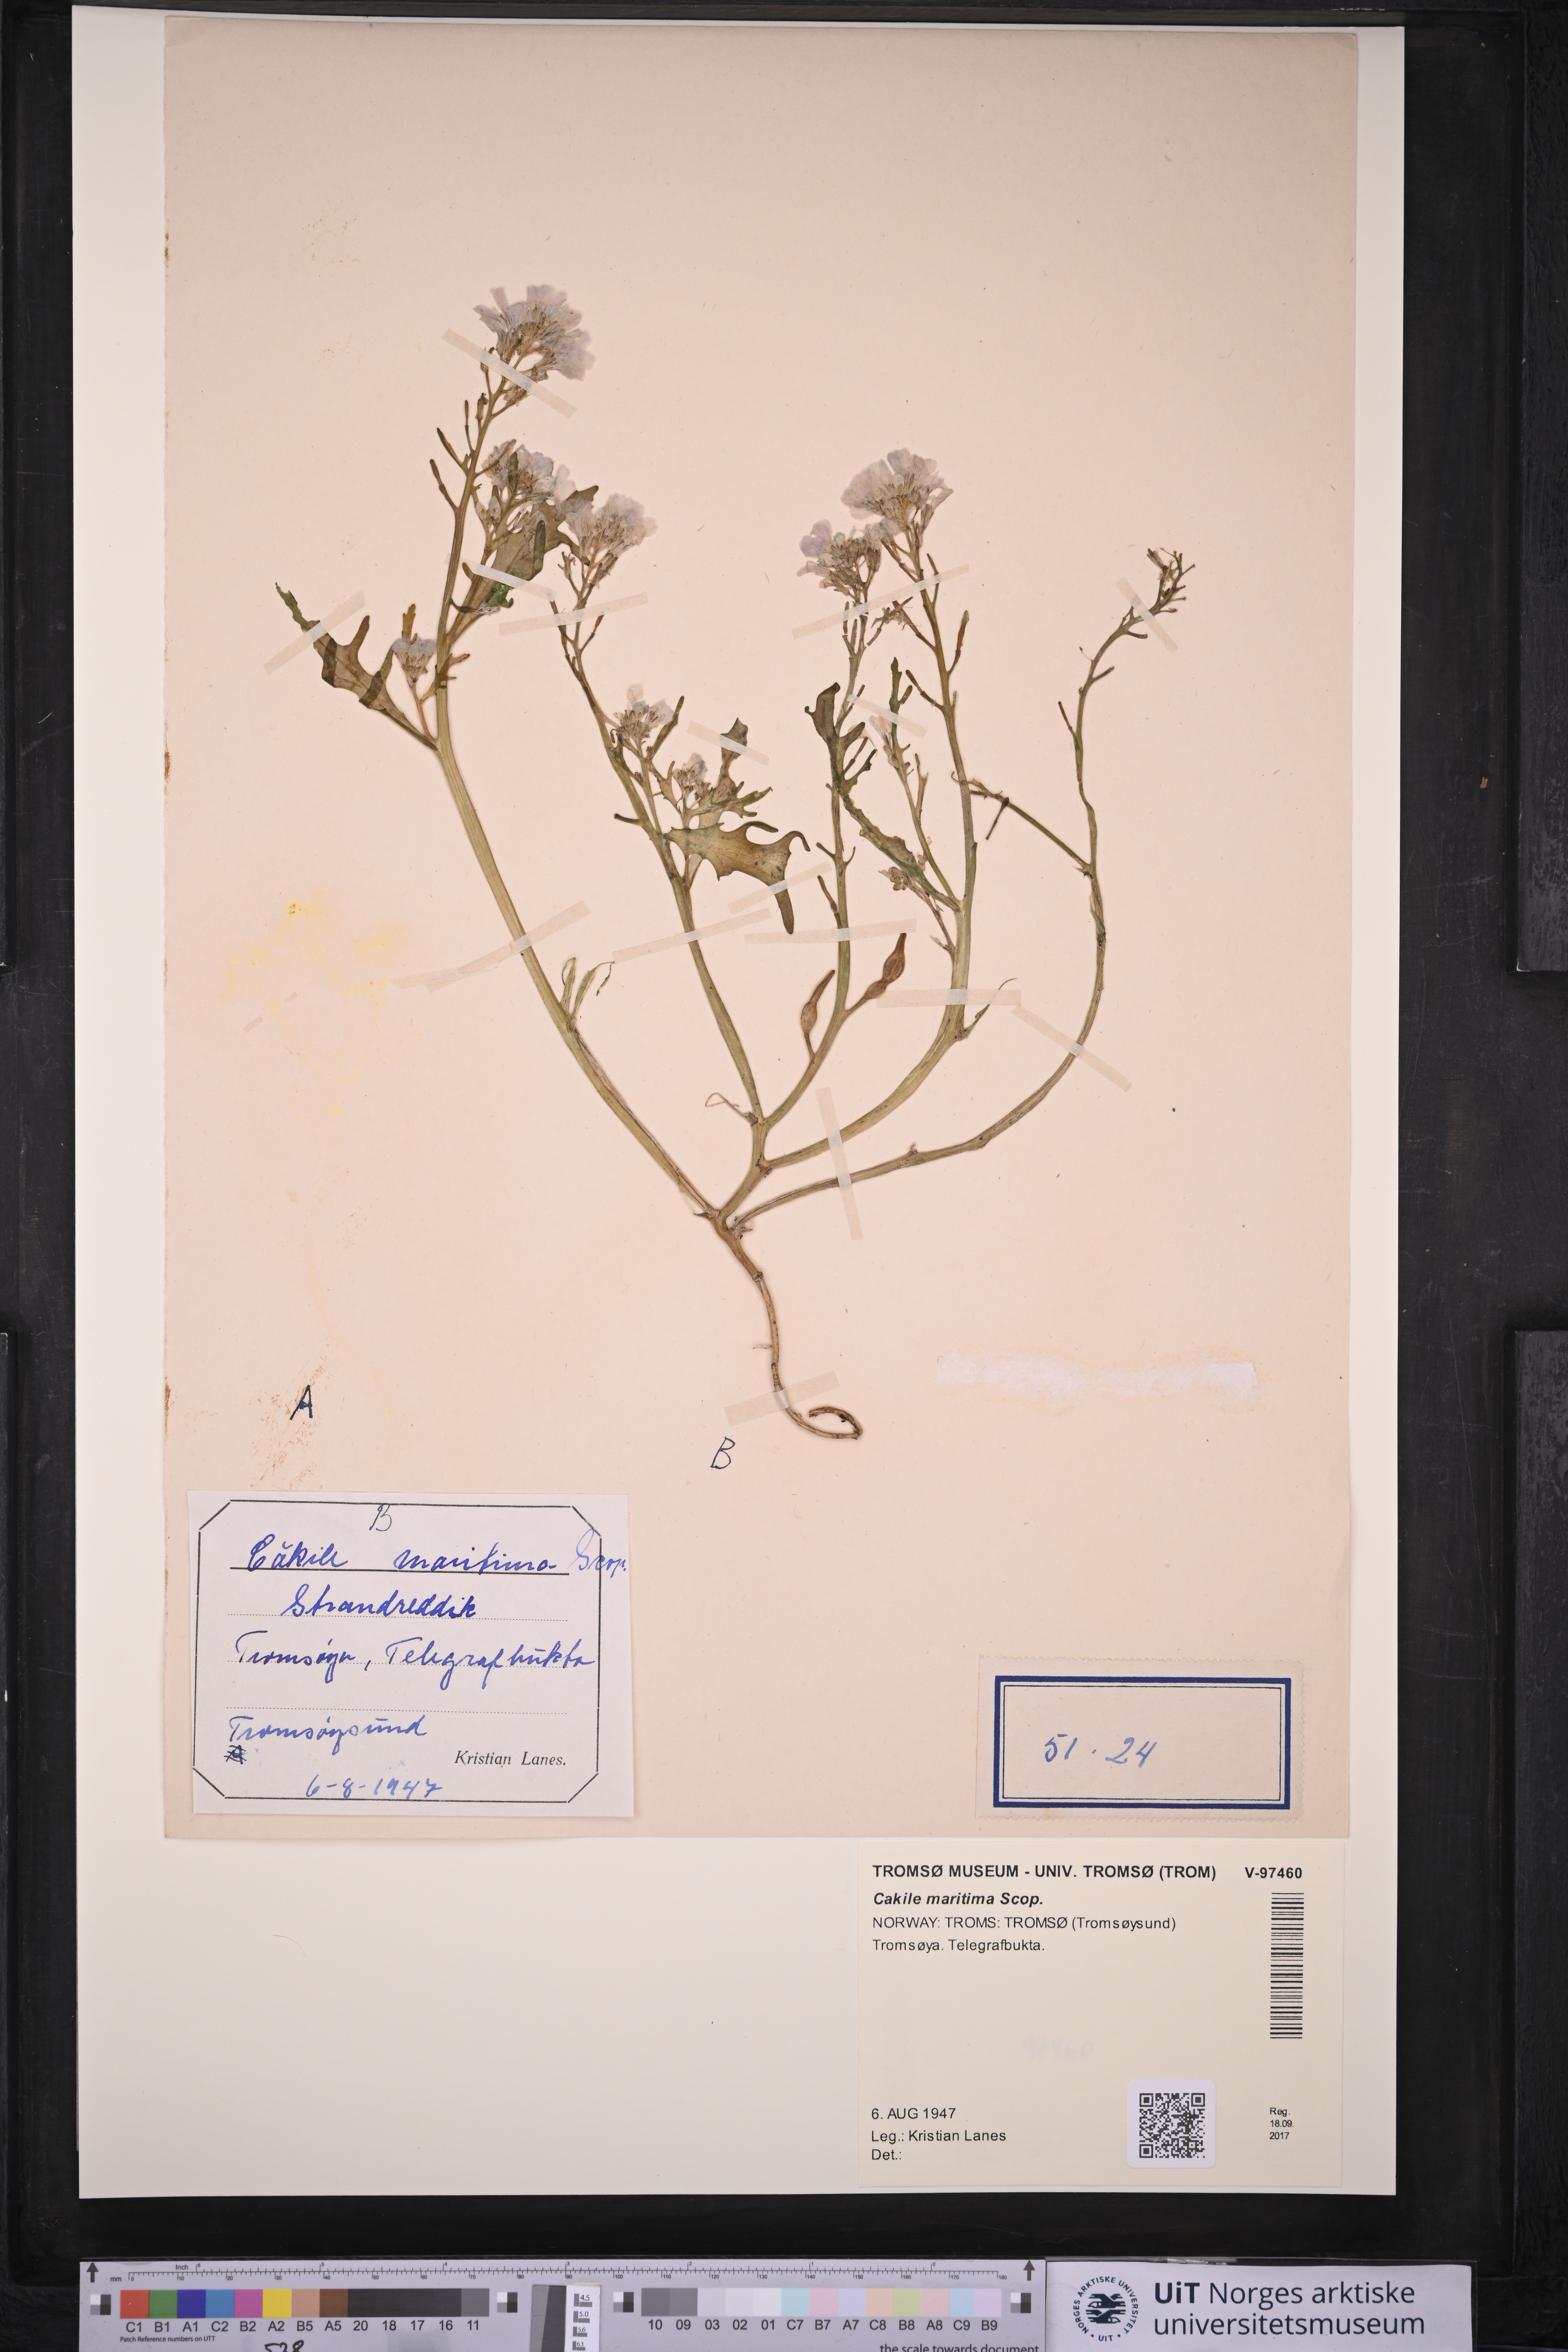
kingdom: Plantae
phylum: Tracheophyta
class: Magnoliopsida
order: Brassicales
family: Brassicaceae
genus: Cakile
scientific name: Cakile maritima
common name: Sea rocket
